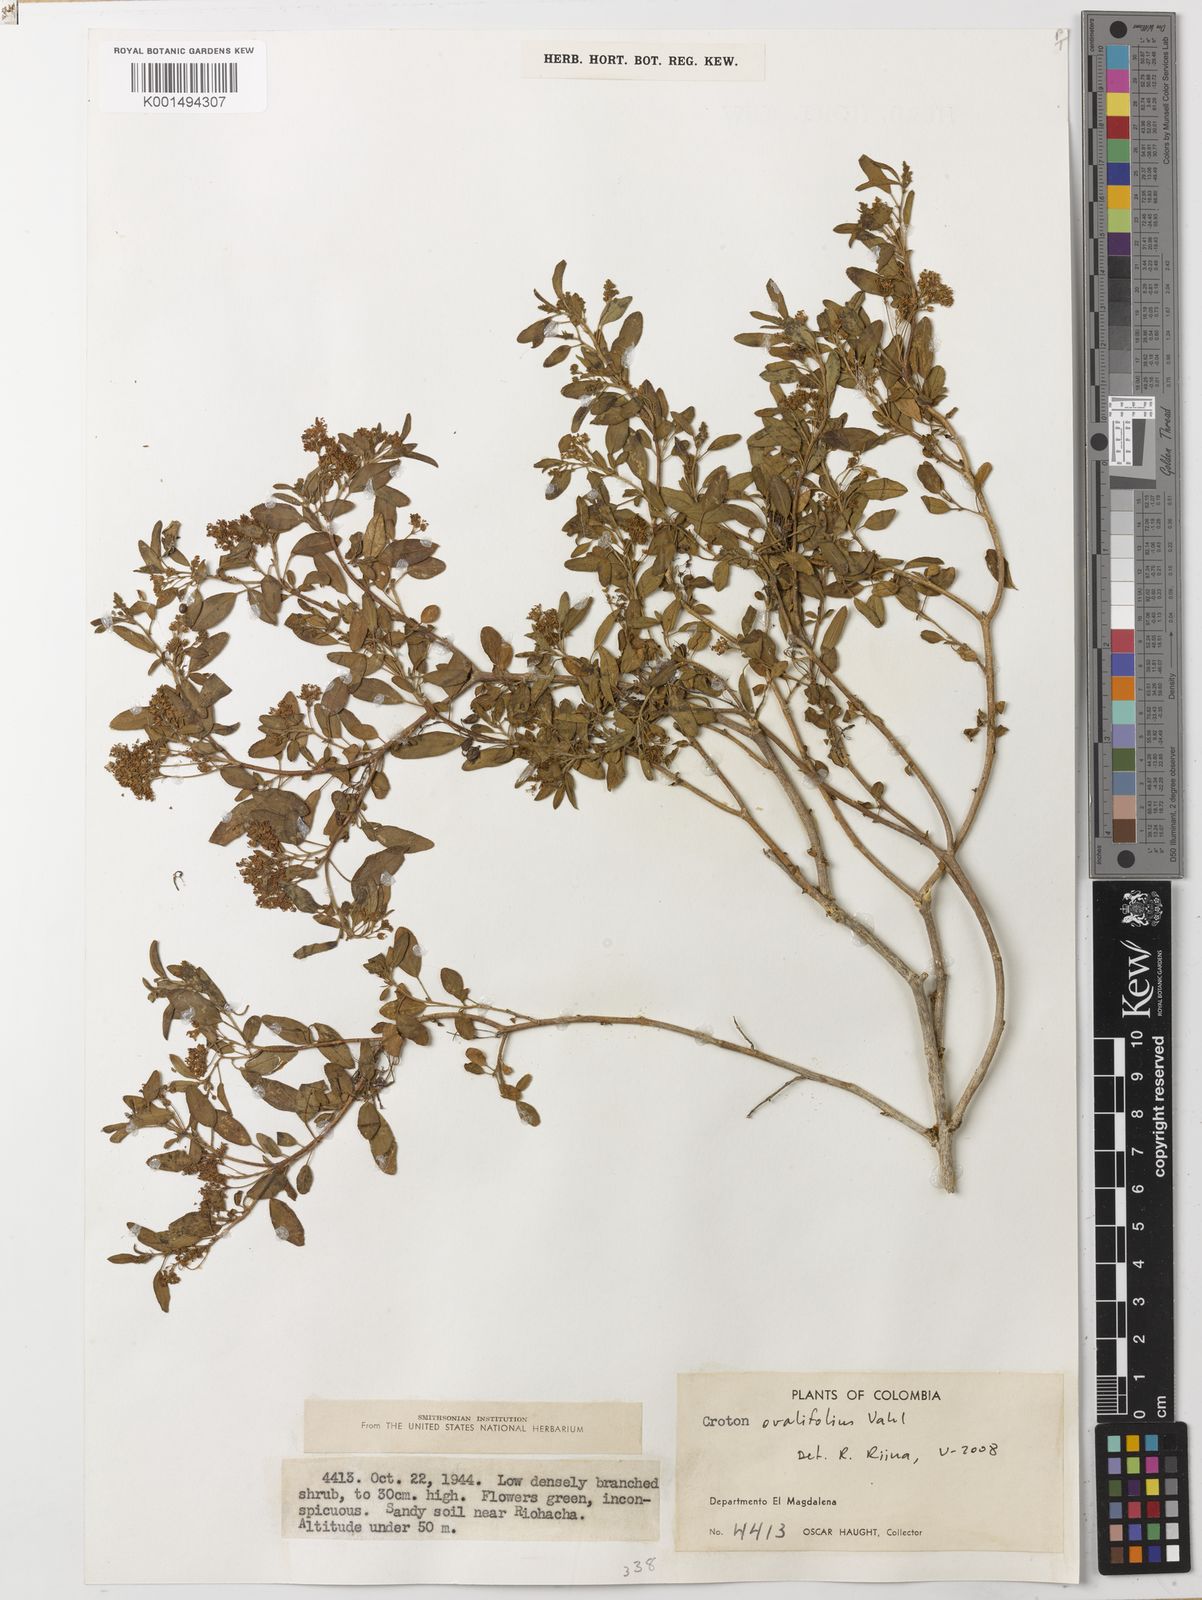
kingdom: Plantae
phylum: Tracheophyta
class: Magnoliopsida
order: Malpighiales
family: Euphorbiaceae
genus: Croton
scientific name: Croton ovalifolius
